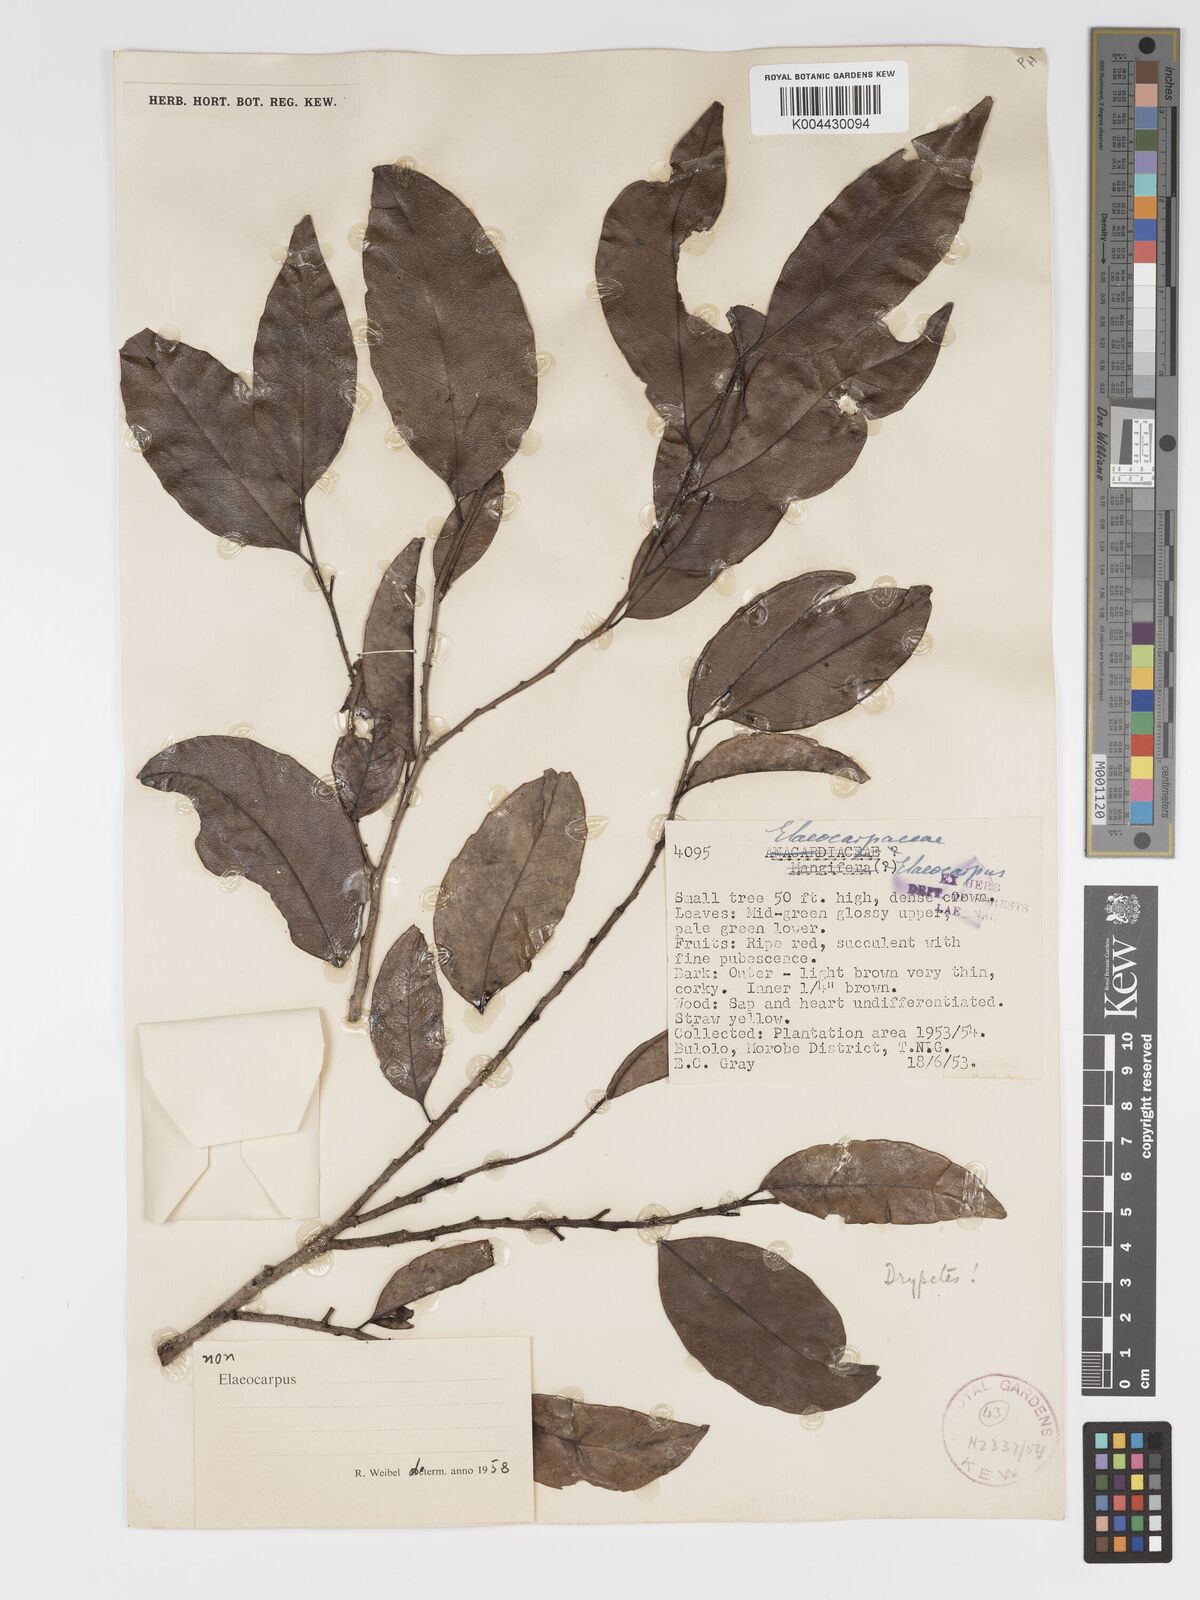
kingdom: Plantae
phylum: Tracheophyta
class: Magnoliopsida
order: Malpighiales
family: Putranjivaceae
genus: Drypetes
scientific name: Drypetes lasiogynoides
